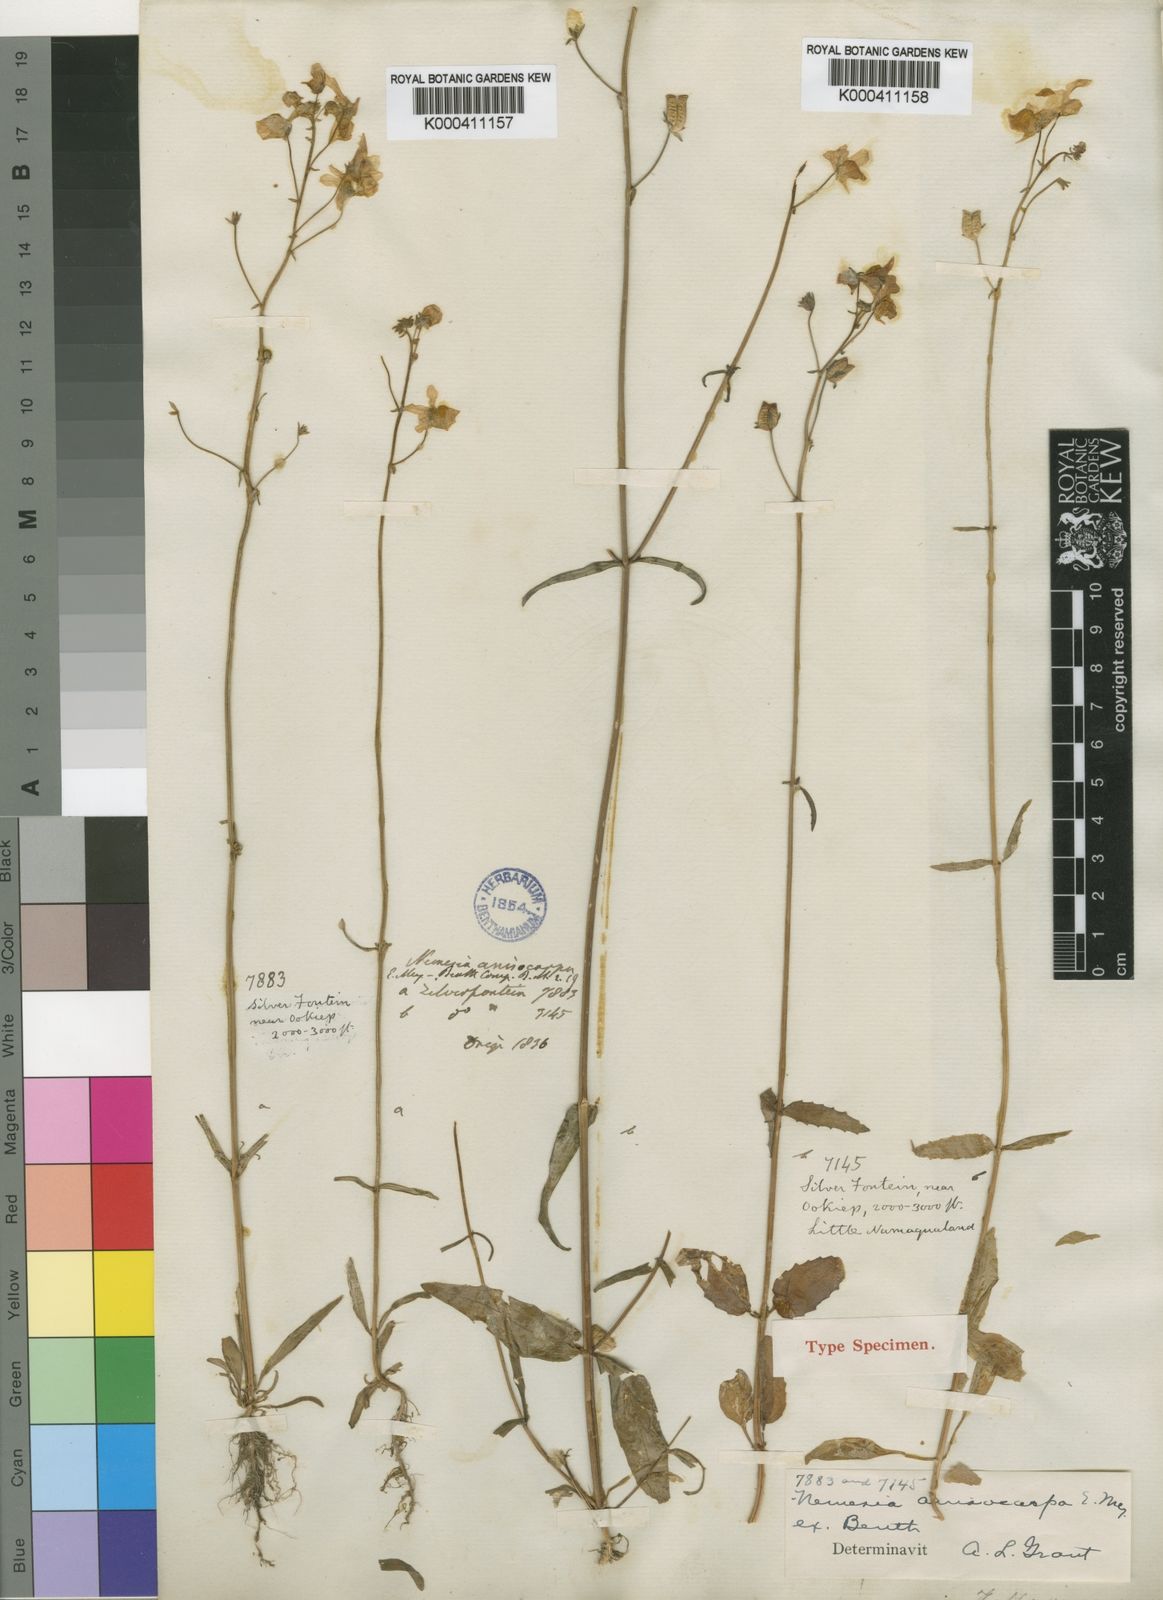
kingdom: Plantae
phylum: Tracheophyta
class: Magnoliopsida
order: Lamiales
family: Scrophulariaceae
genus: Nemesia
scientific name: Nemesia anisocarpa
